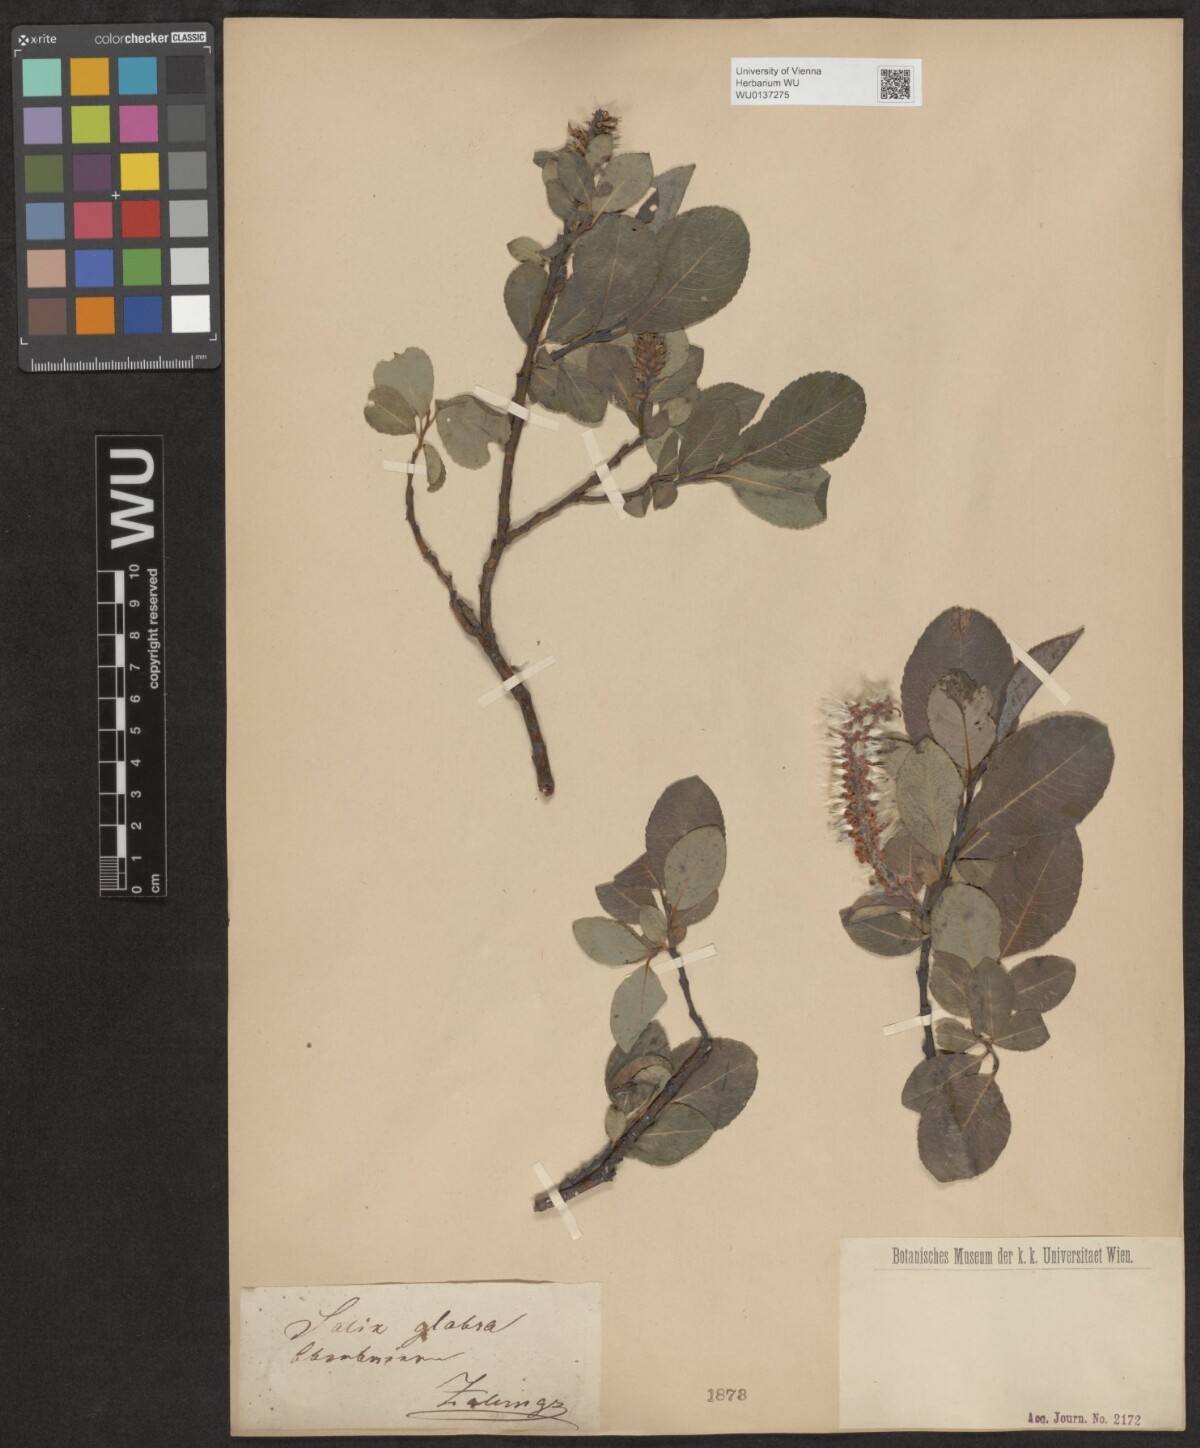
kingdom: Plantae
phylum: Tracheophyta
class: Magnoliopsida
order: Malpighiales
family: Salicaceae
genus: Salix
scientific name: Salix glabra
